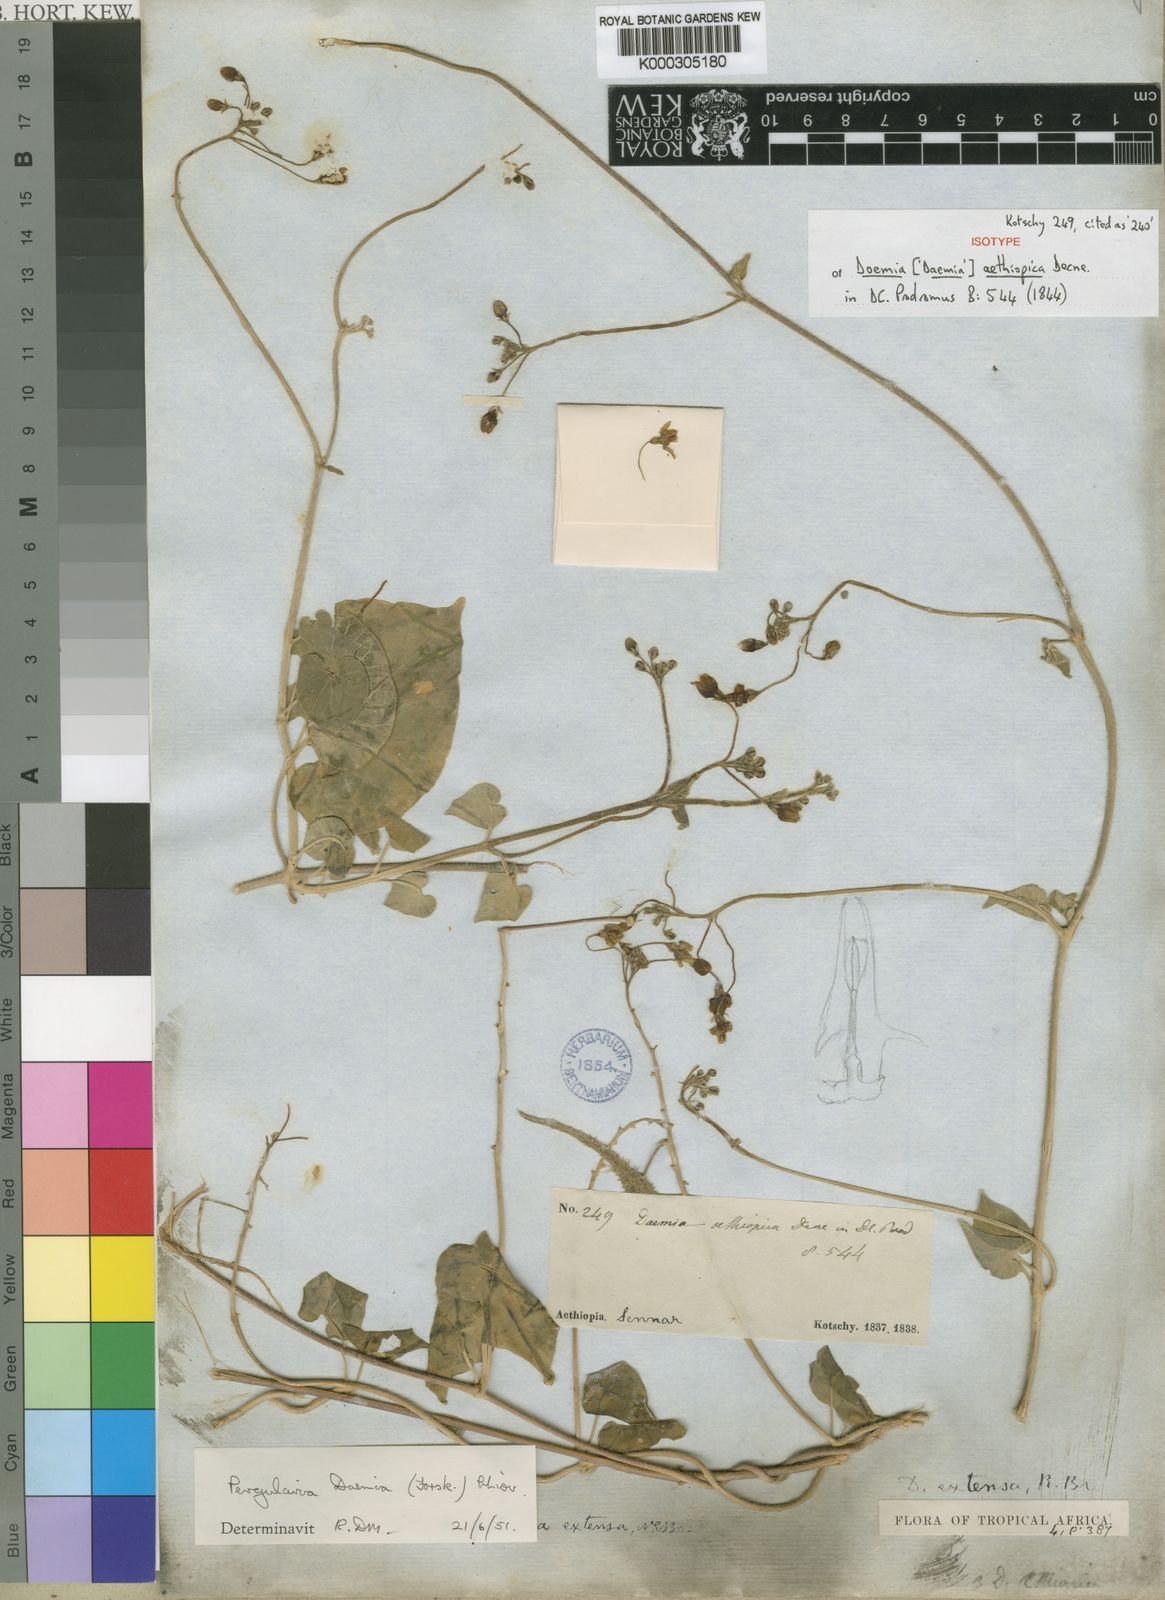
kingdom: Plantae
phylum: Tracheophyta
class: Magnoliopsida
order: Gentianales
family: Apocynaceae
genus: Pergularia
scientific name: Pergularia daemia
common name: Trellis-vine
